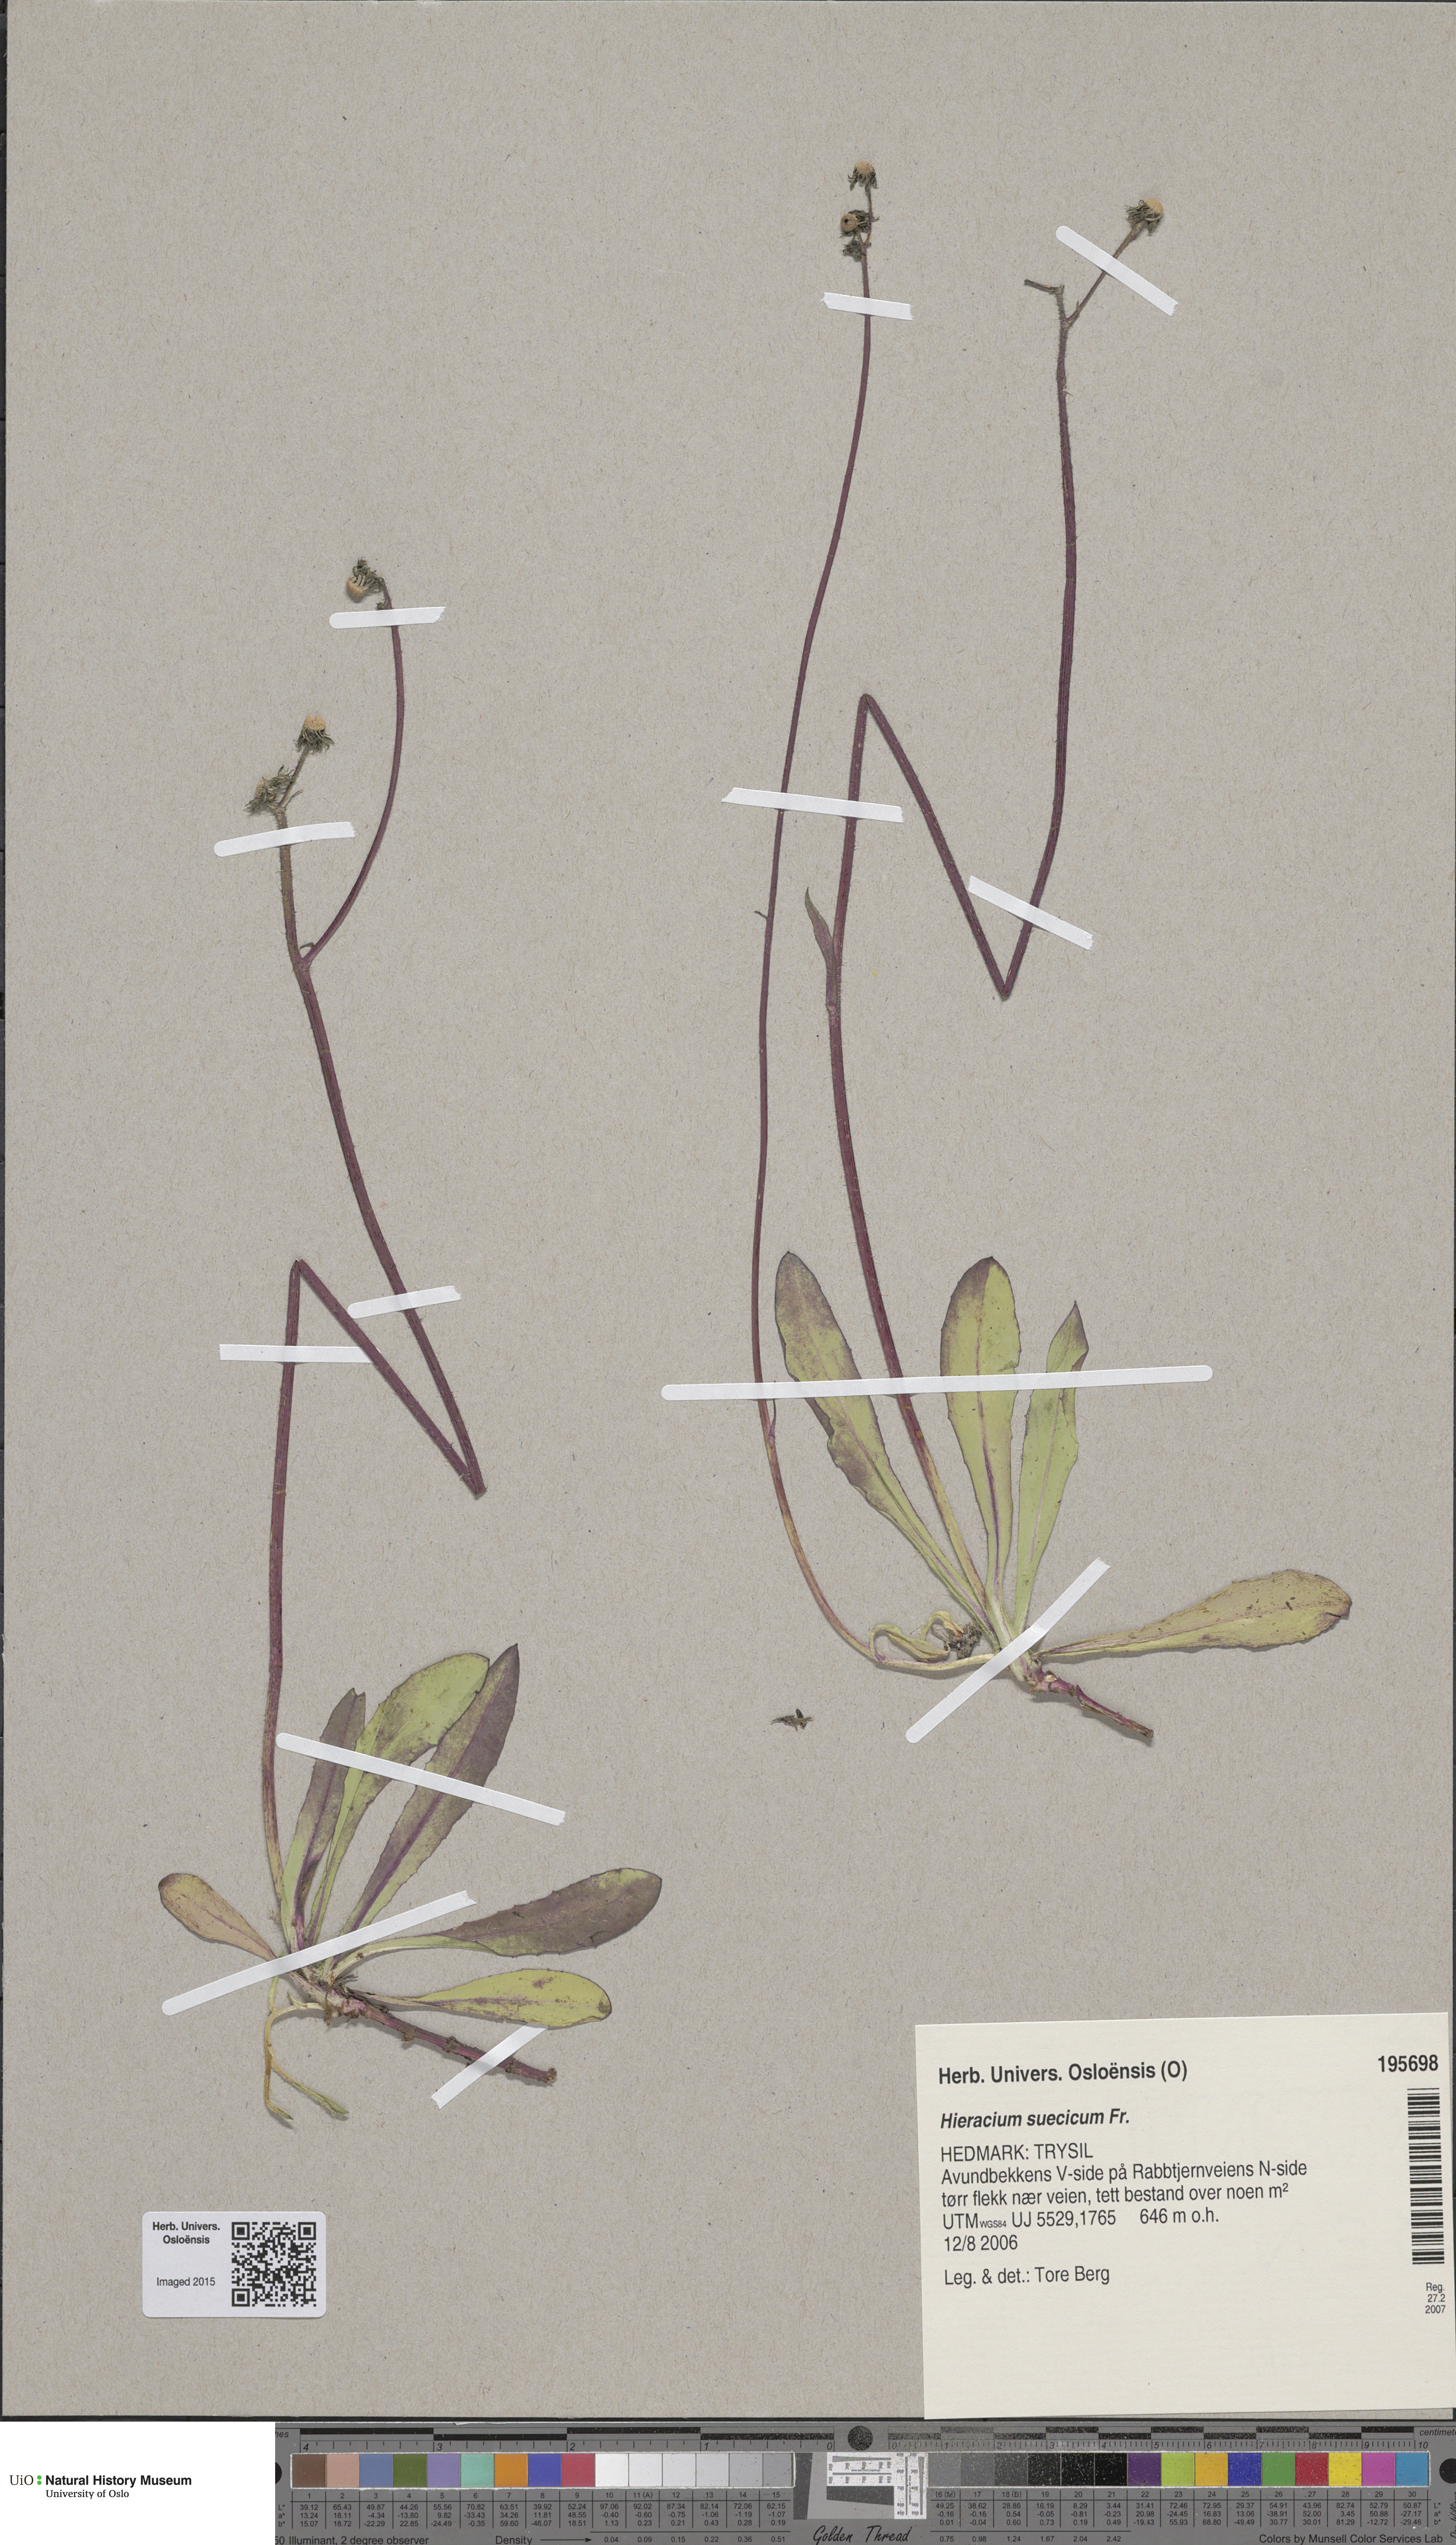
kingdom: Plantae
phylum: Tracheophyta
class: Magnoliopsida
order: Asterales
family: Asteraceae
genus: Pilosella
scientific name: Pilosella dubia
